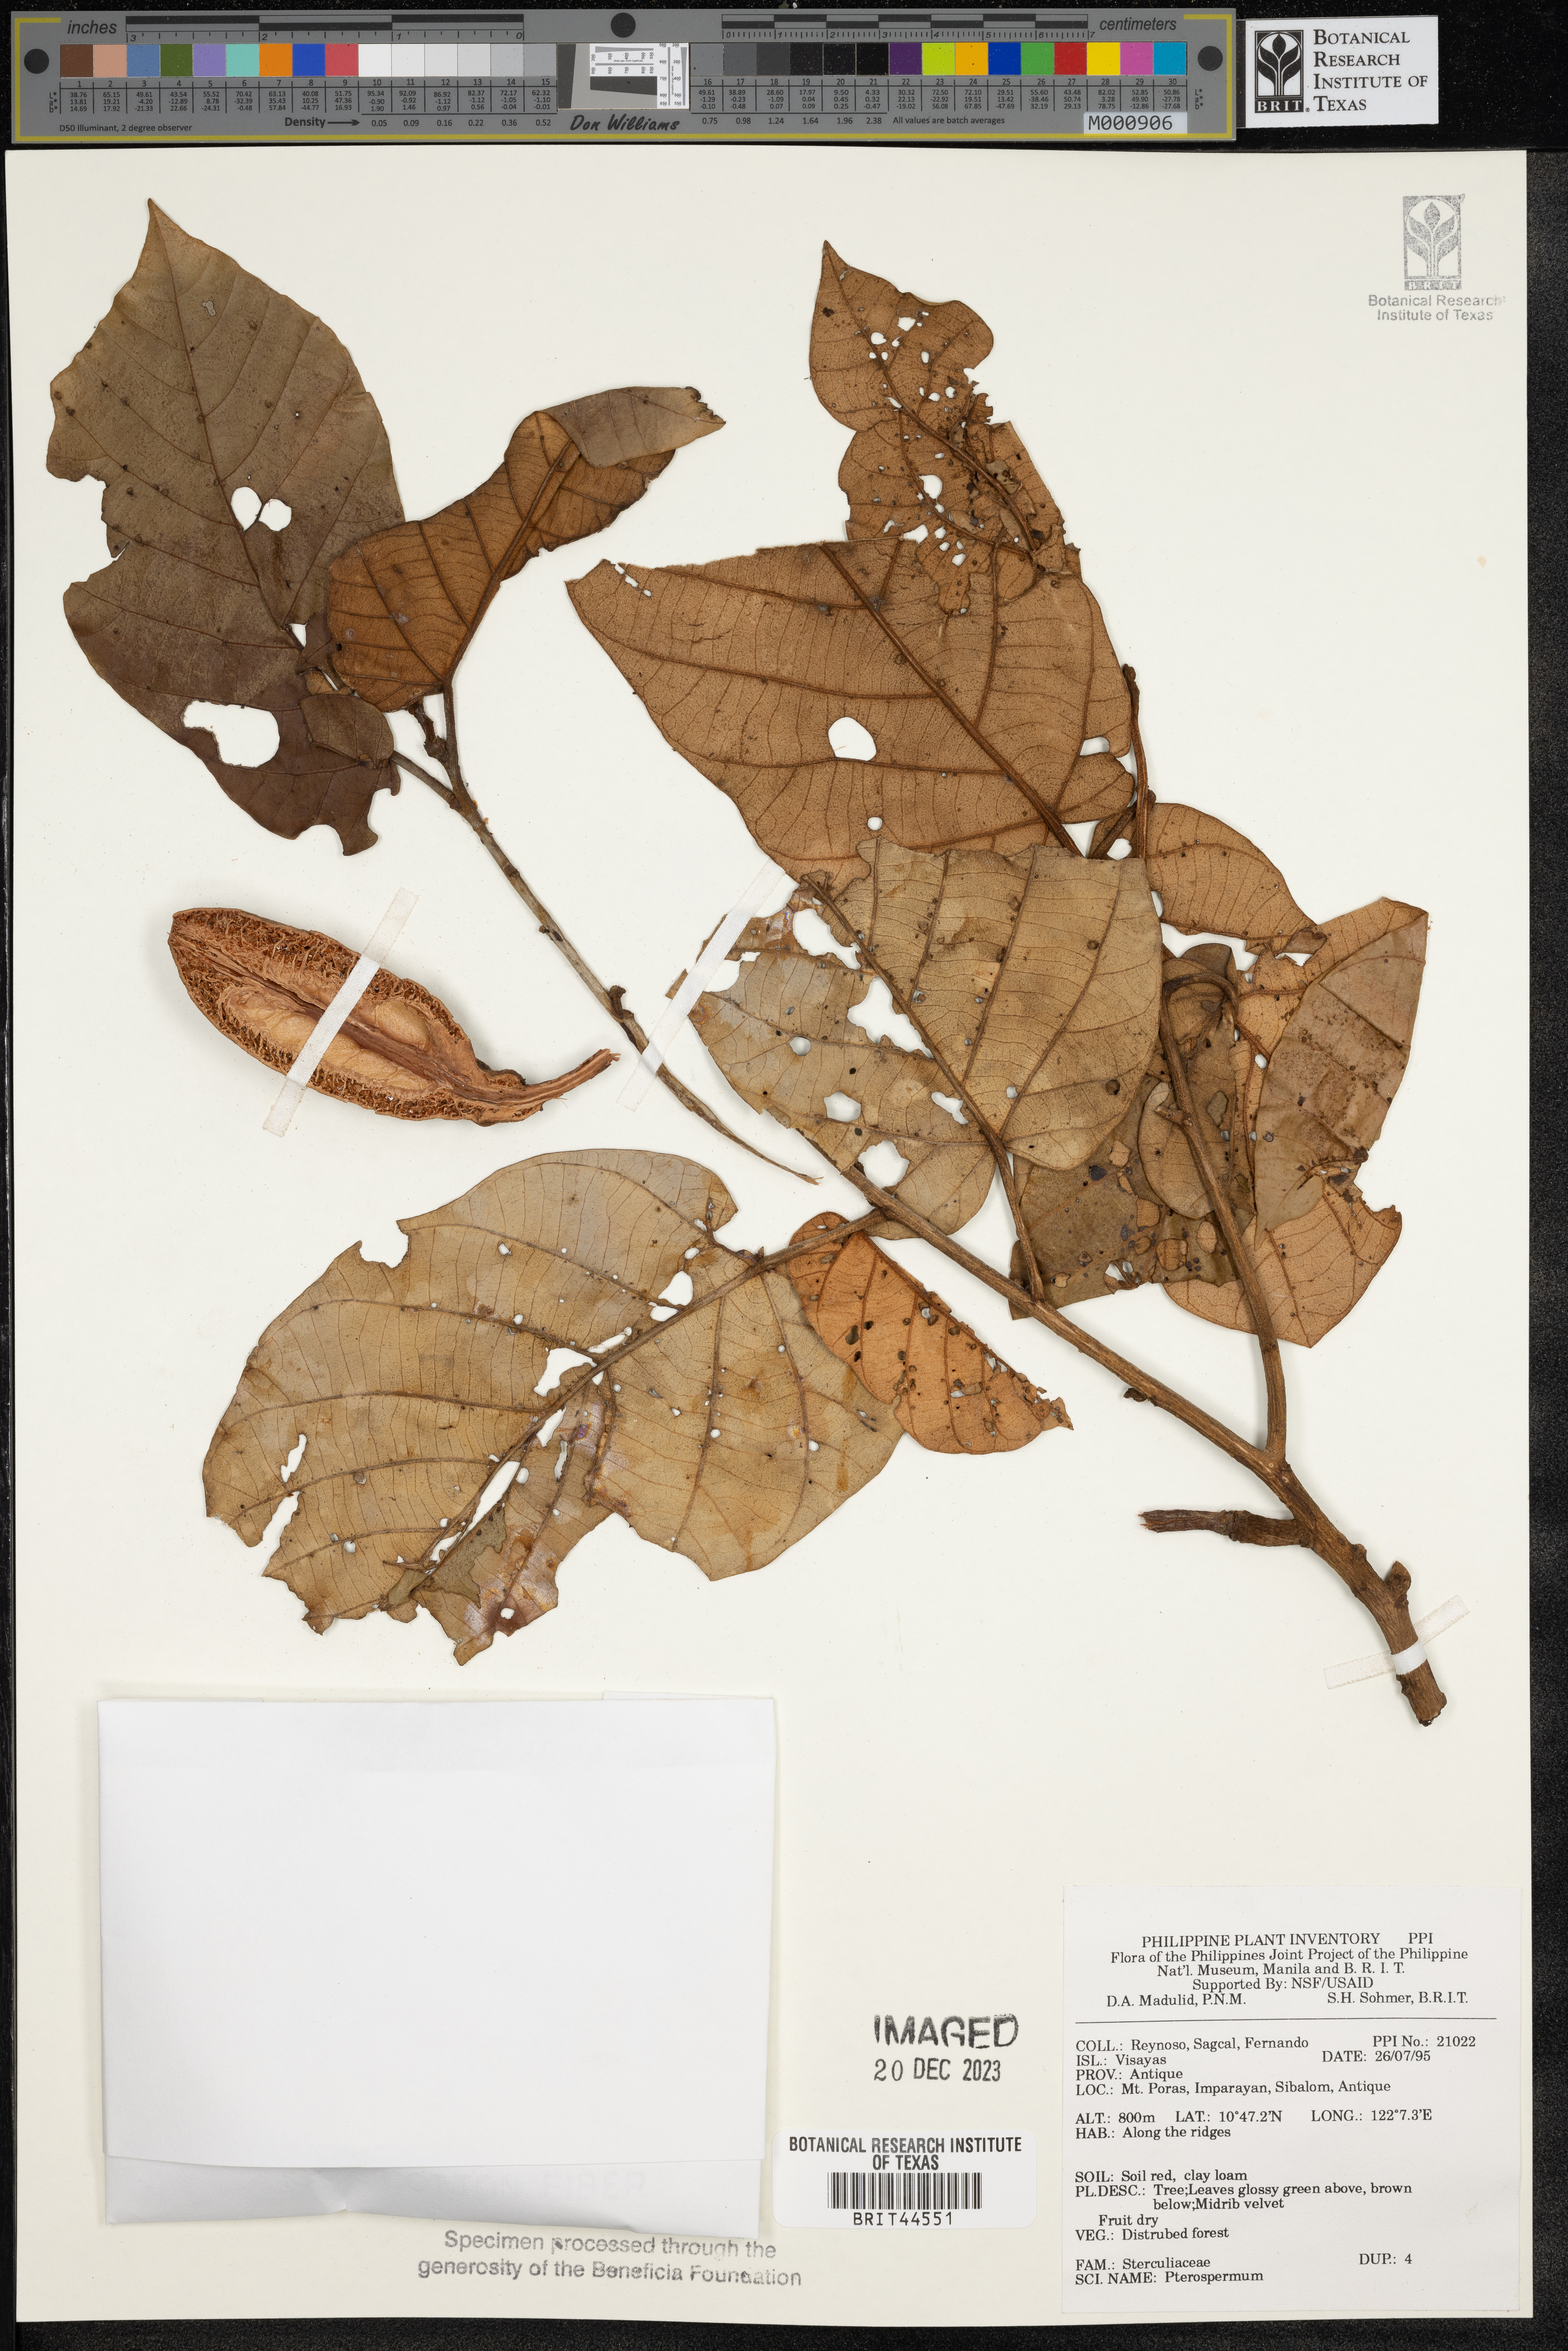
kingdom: Plantae
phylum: Tracheophyta
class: Magnoliopsida
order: Malvales
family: Malvaceae
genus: Pterospermum
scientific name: Pterospermum
